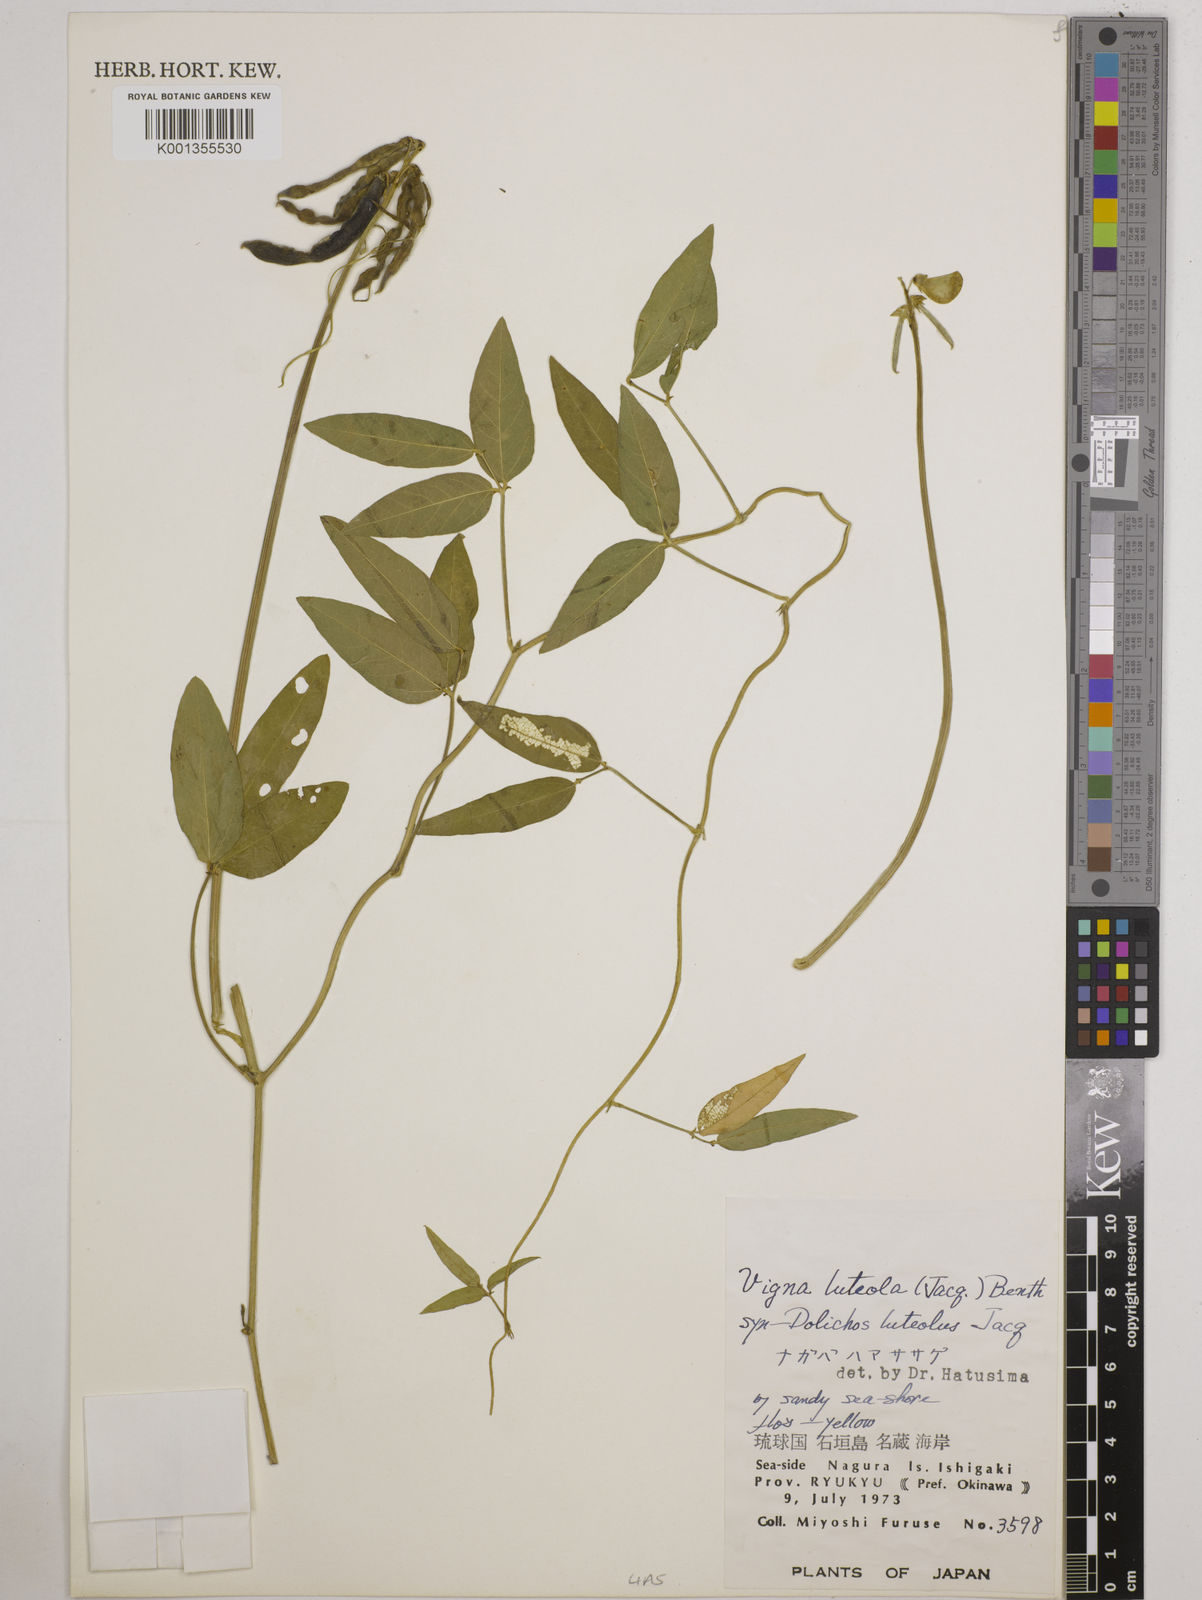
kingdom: Plantae
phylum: Tracheophyta
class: Magnoliopsida
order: Fabales
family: Fabaceae
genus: Vigna
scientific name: Vigna luteola
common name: Hairypod cowpea
